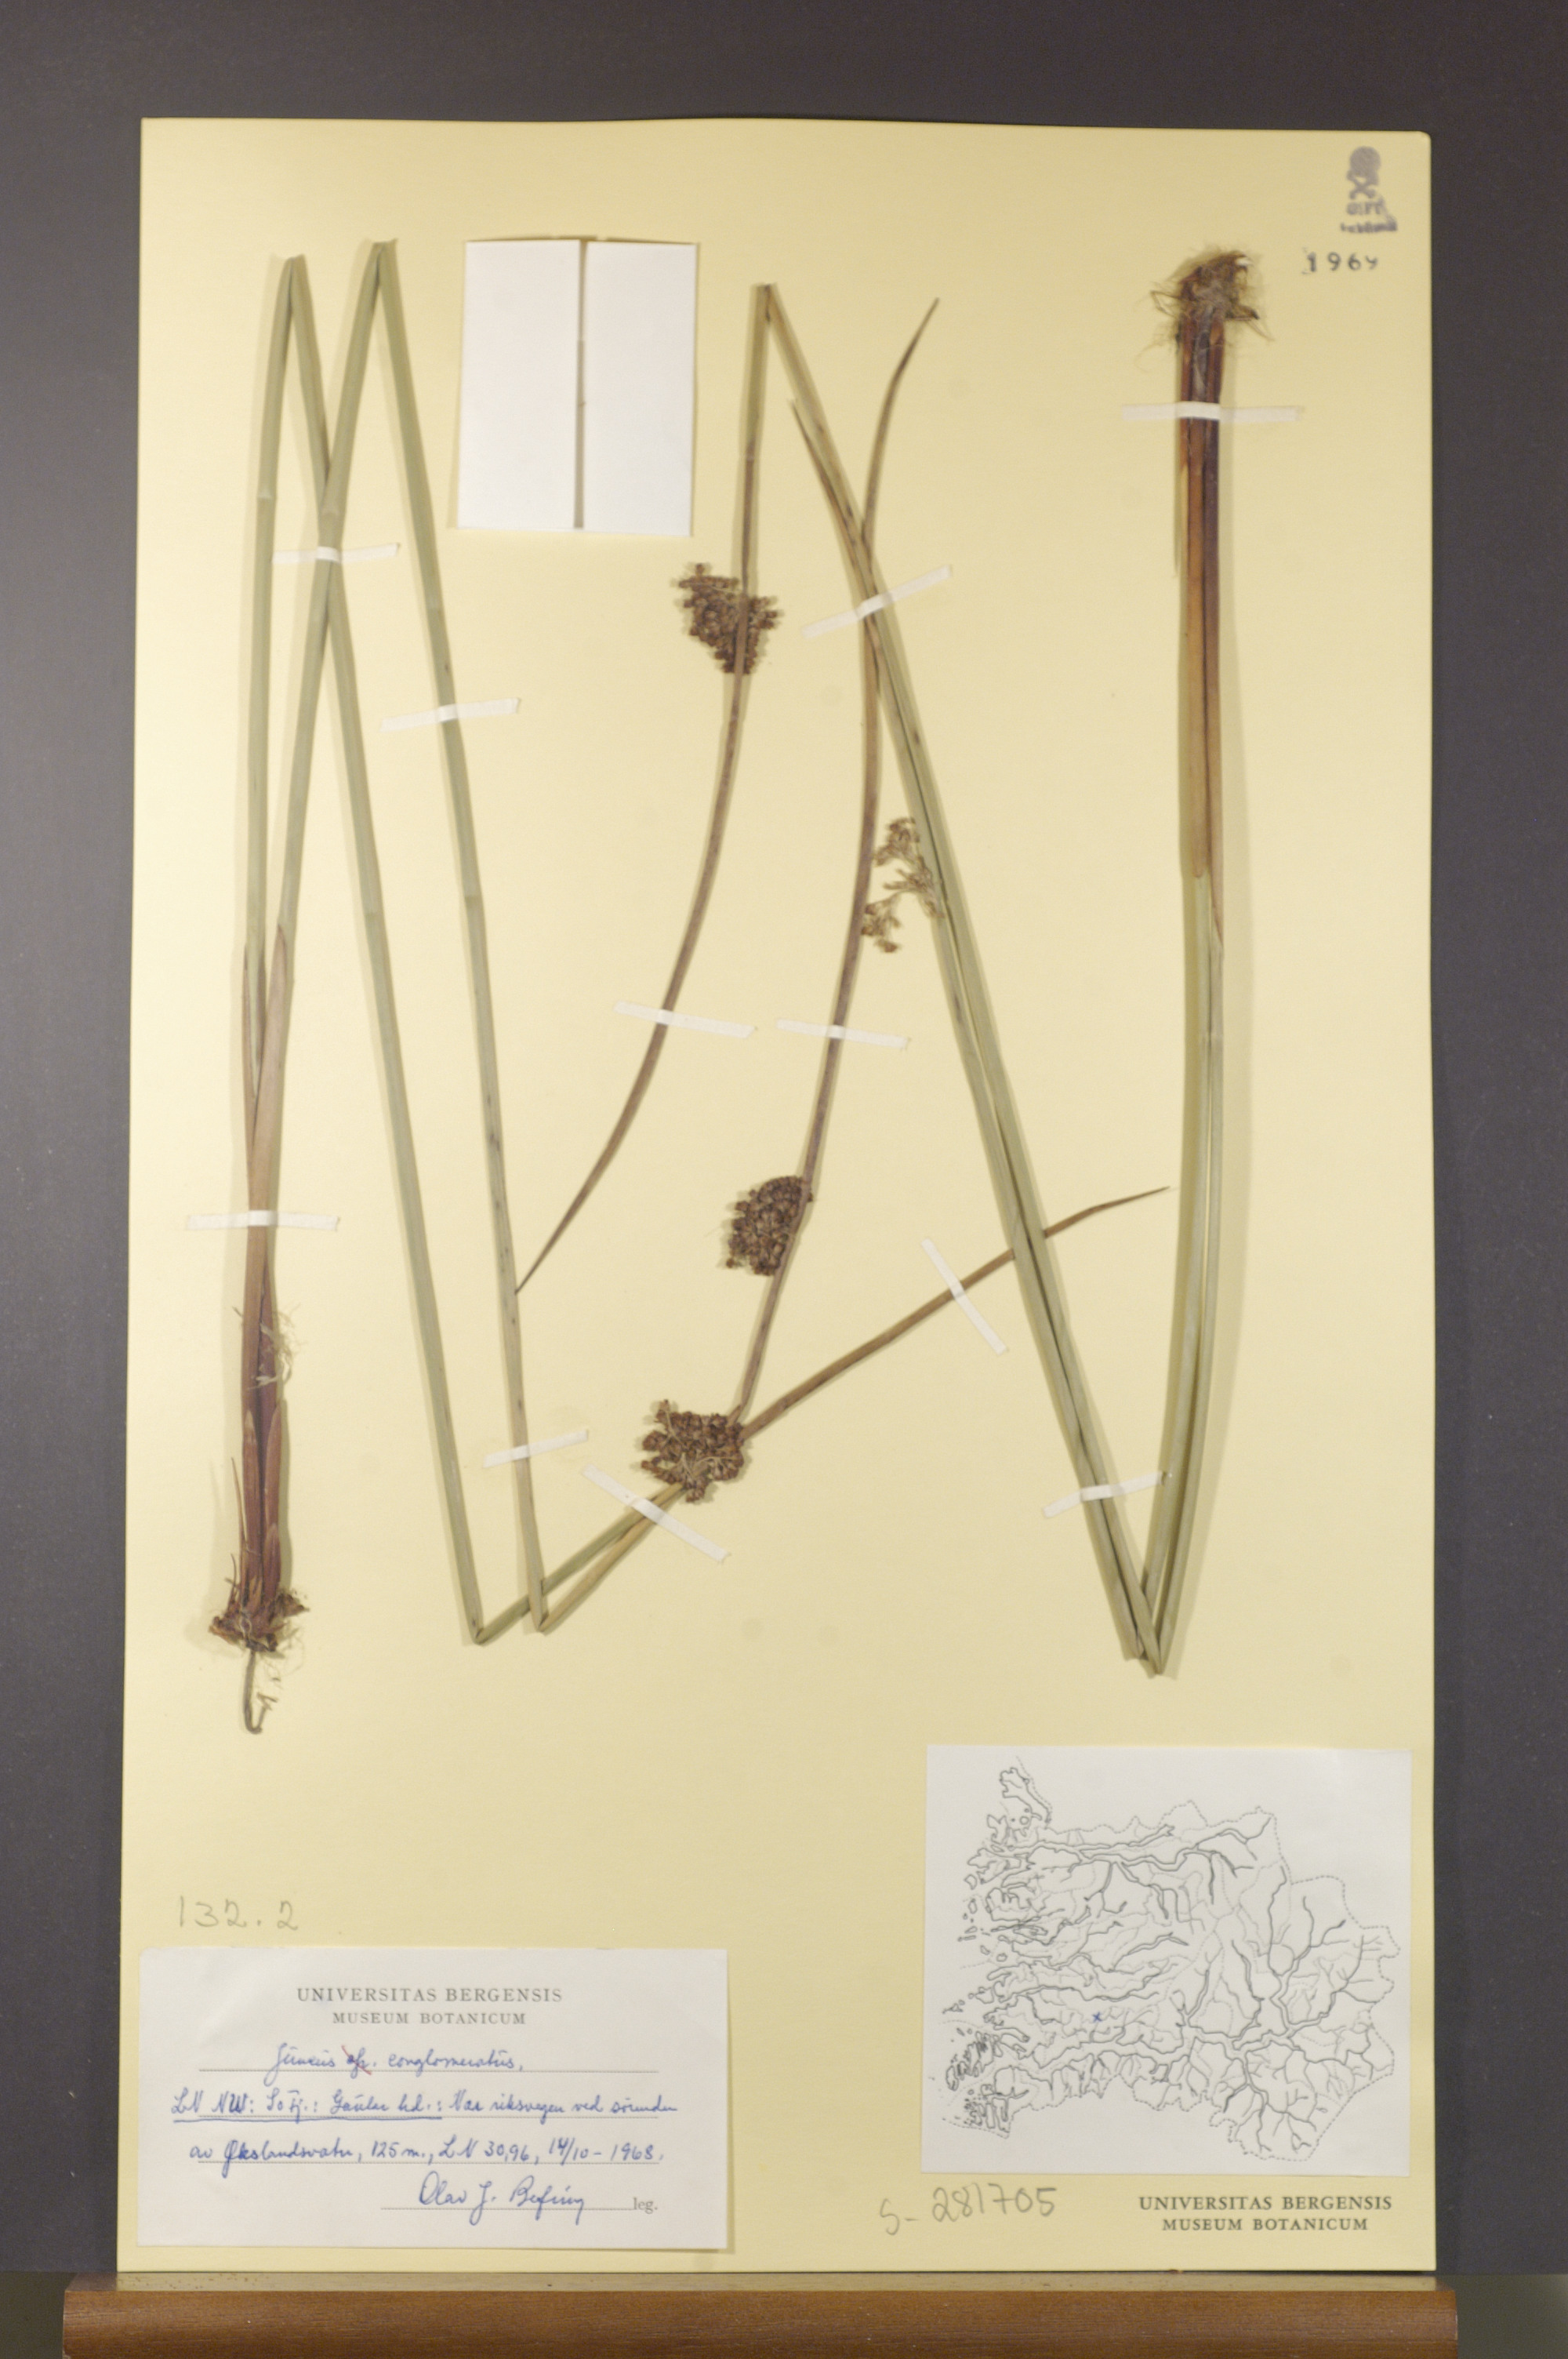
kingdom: Plantae
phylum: Tracheophyta
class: Liliopsida
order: Poales
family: Juncaceae
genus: Juncus
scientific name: Juncus conglomeratus
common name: Compact rush
